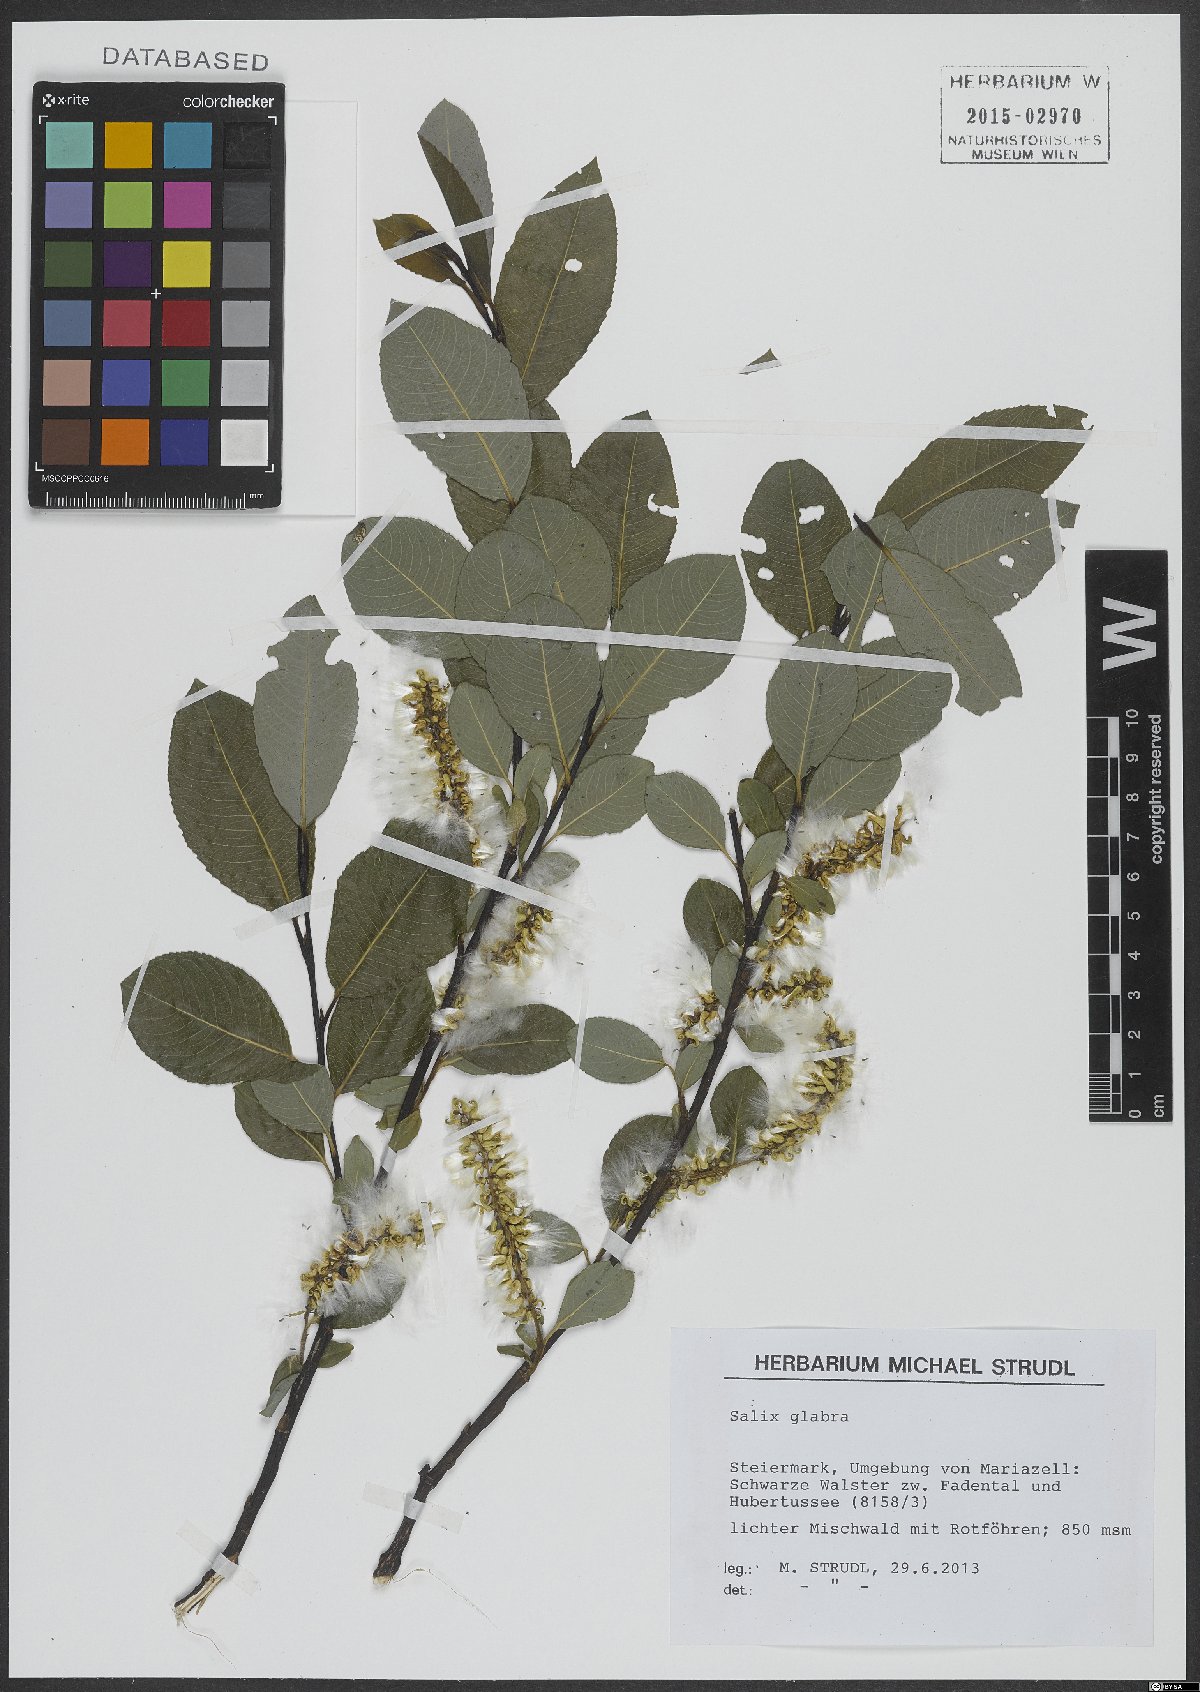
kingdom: Plantae
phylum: Tracheophyta
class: Magnoliopsida
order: Malpighiales
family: Salicaceae
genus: Salix
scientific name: Salix glabra
